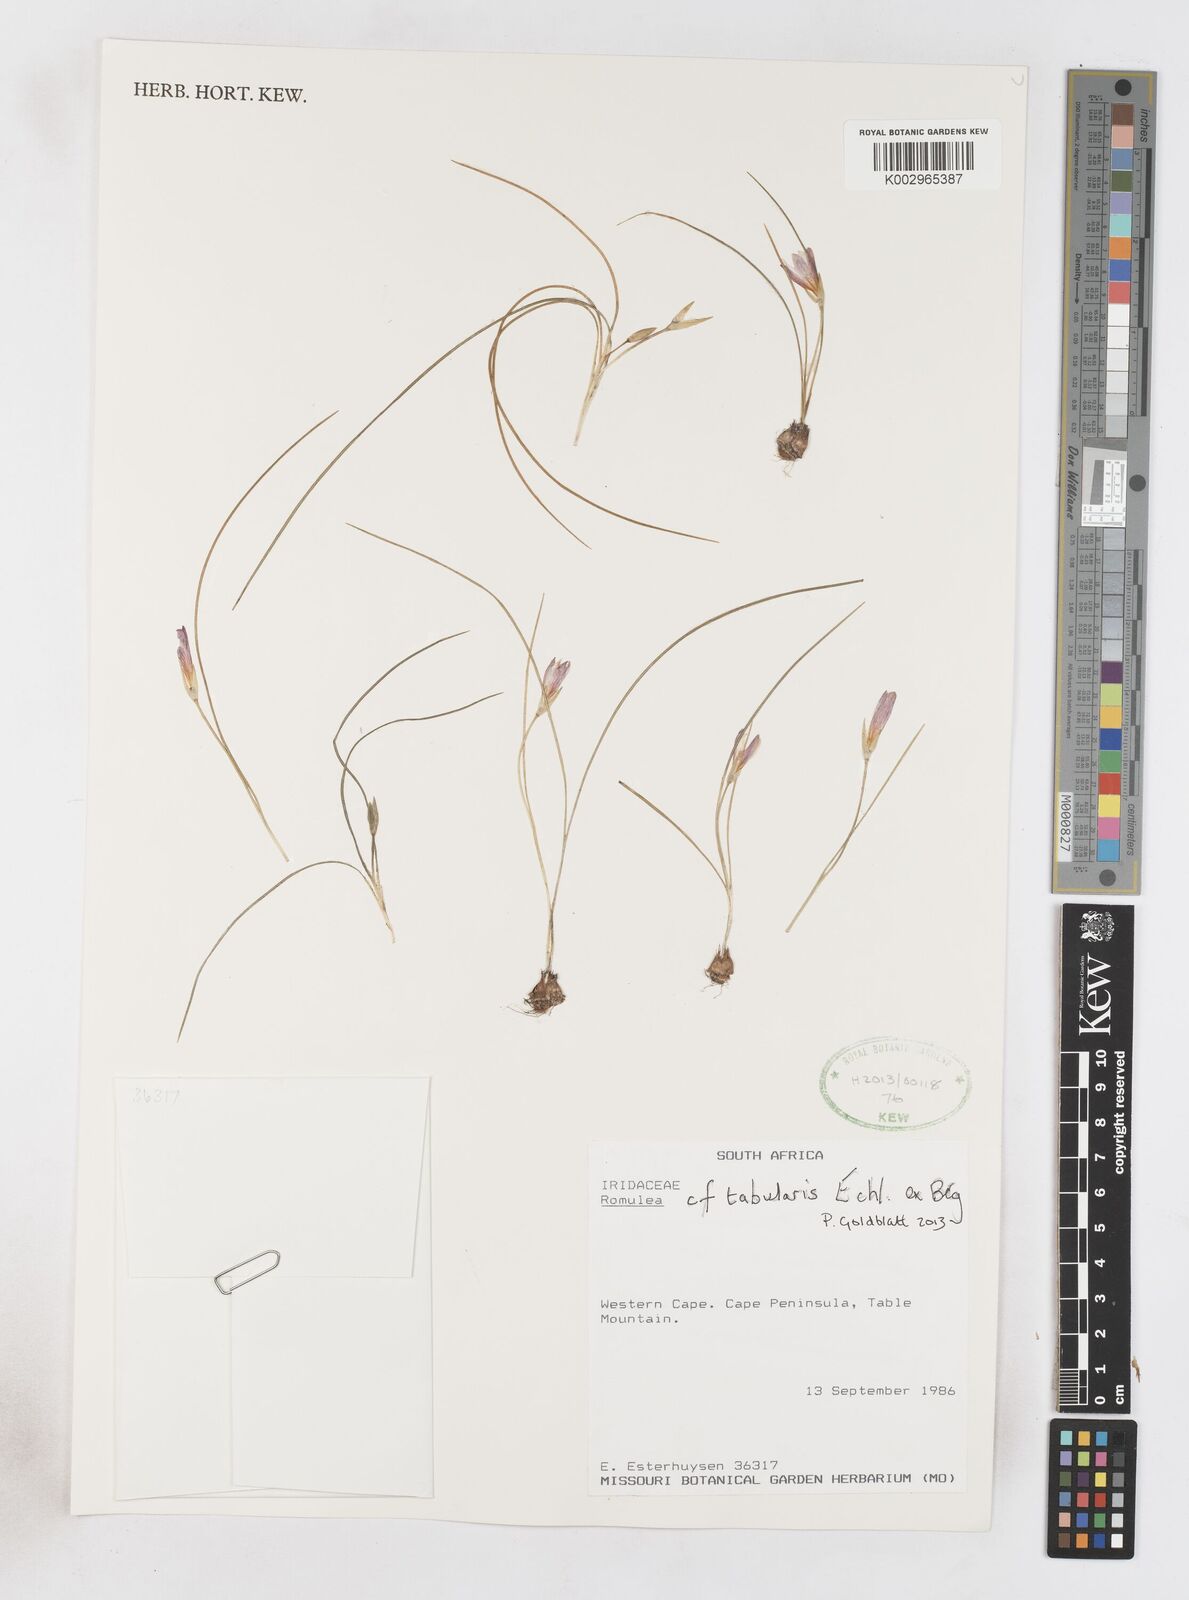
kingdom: Plantae
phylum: Tracheophyta
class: Liliopsida
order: Asparagales
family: Iridaceae
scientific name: Iridaceae
